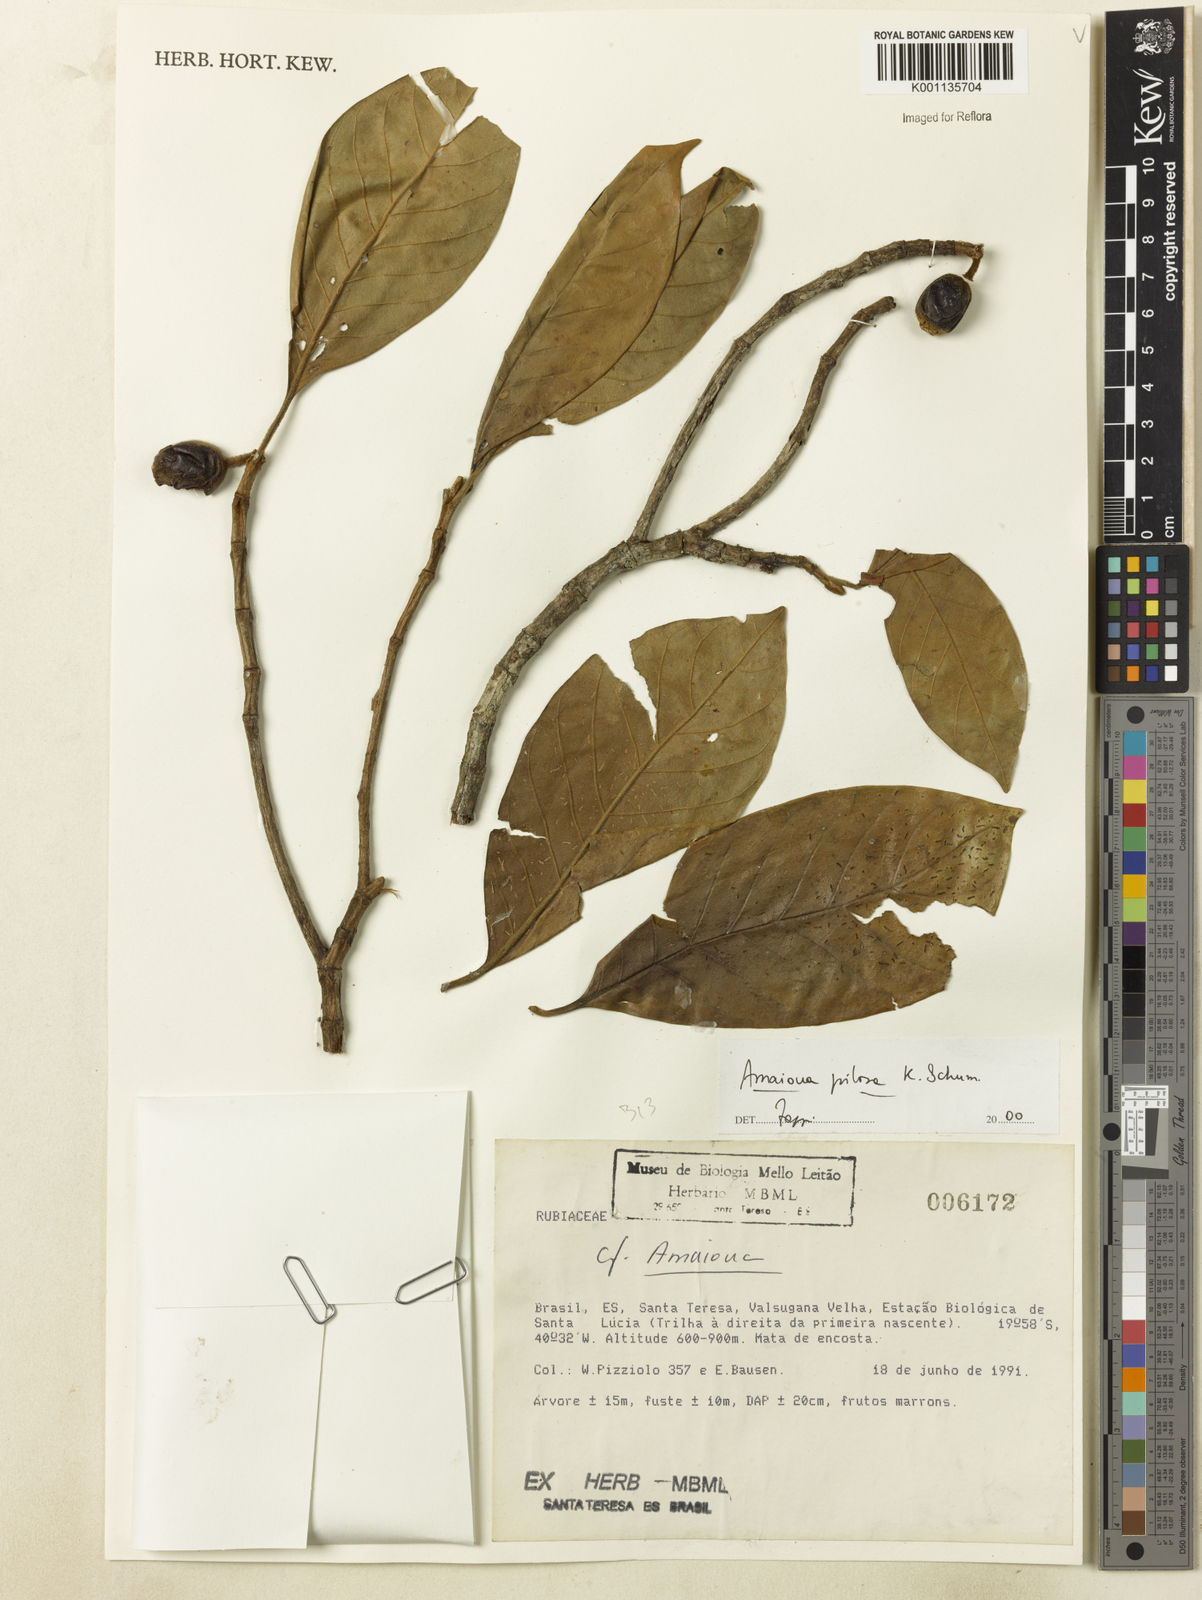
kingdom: Plantae
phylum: Tracheophyta
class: Magnoliopsida
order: Gentianales
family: Rubiaceae
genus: Amaioua
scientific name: Amaioua pilosa
